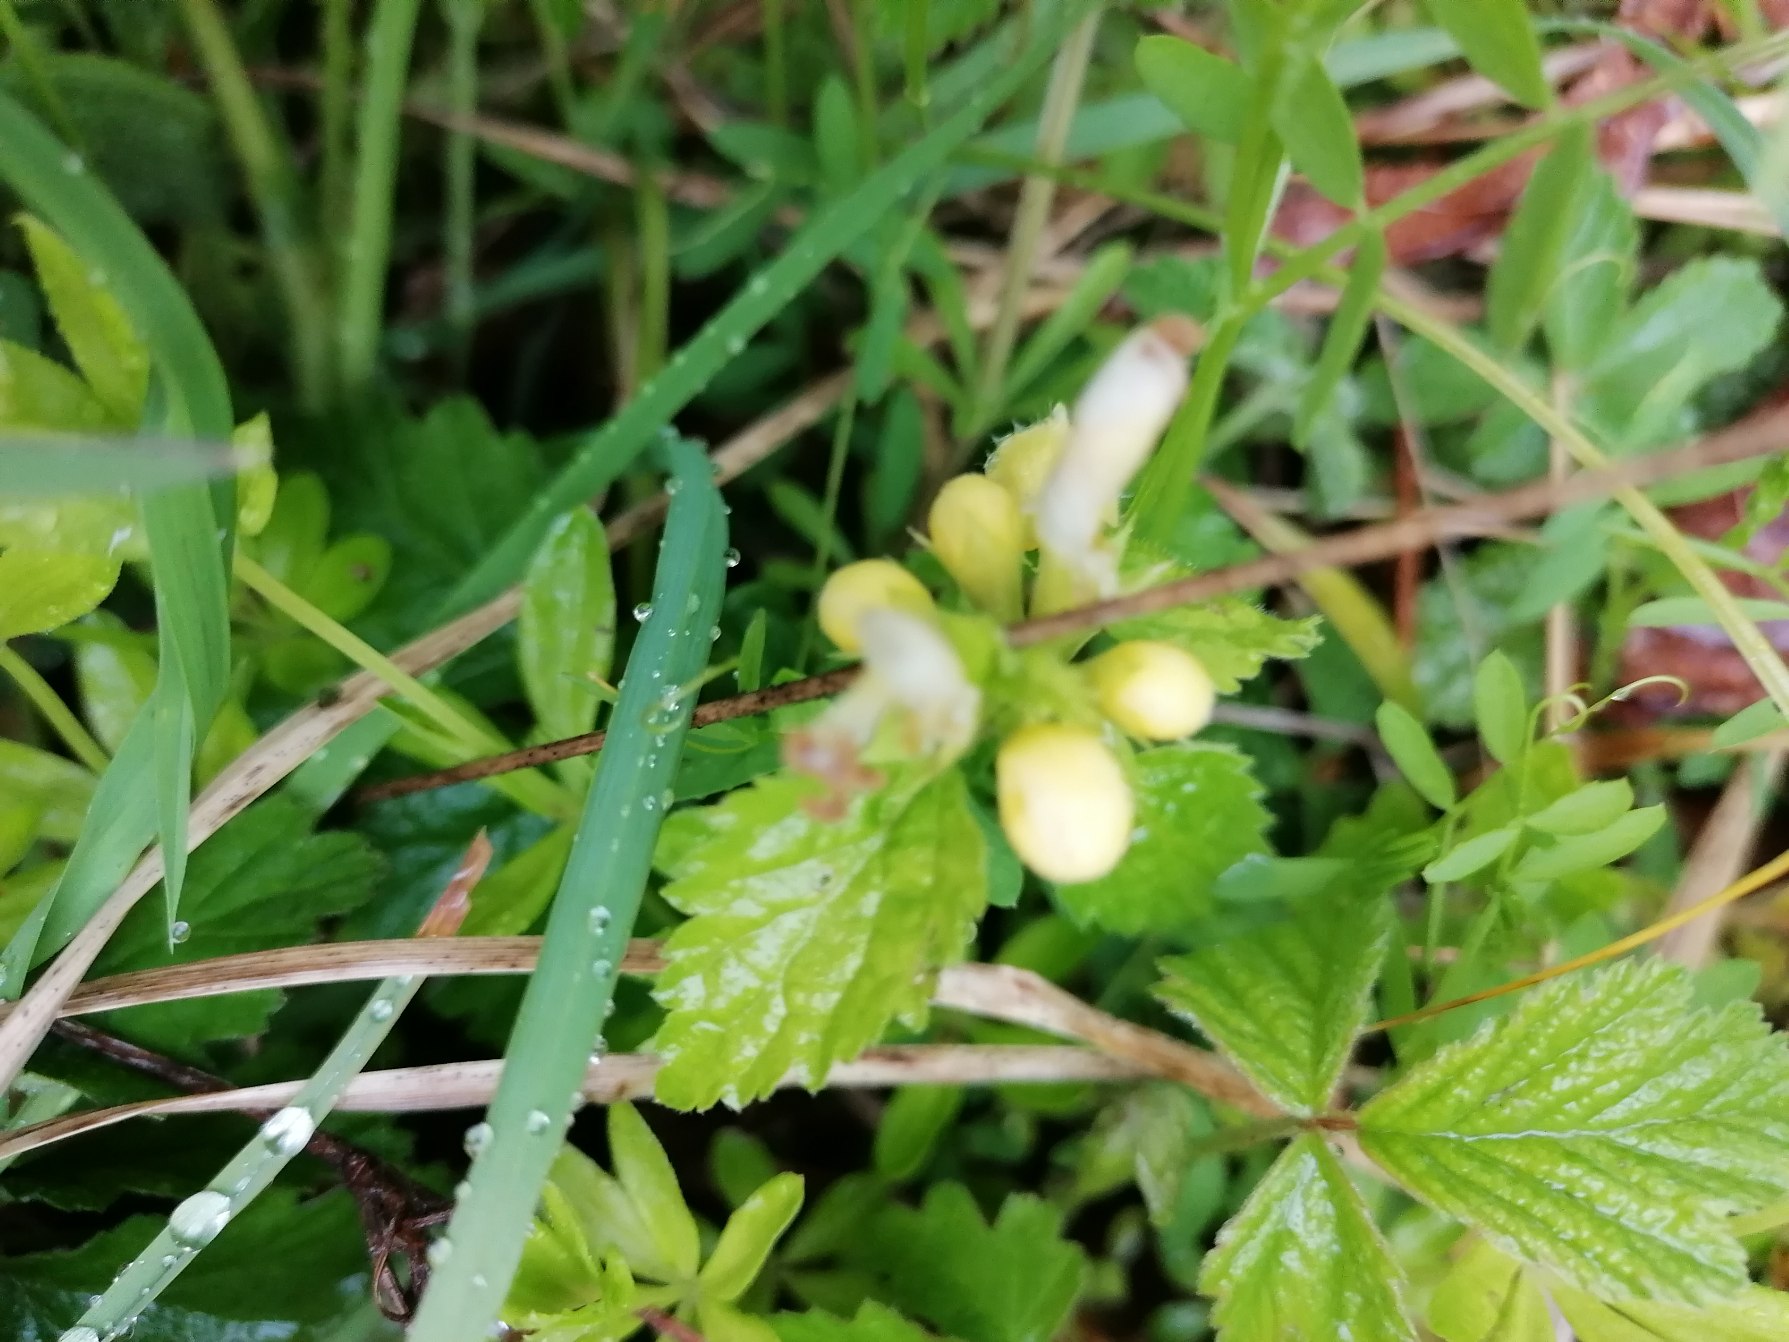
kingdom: Plantae
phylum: Tracheophyta
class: Magnoliopsida
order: Lamiales
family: Lamiaceae
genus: Lamium
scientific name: Lamium galeobdolon
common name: Guldnælde
